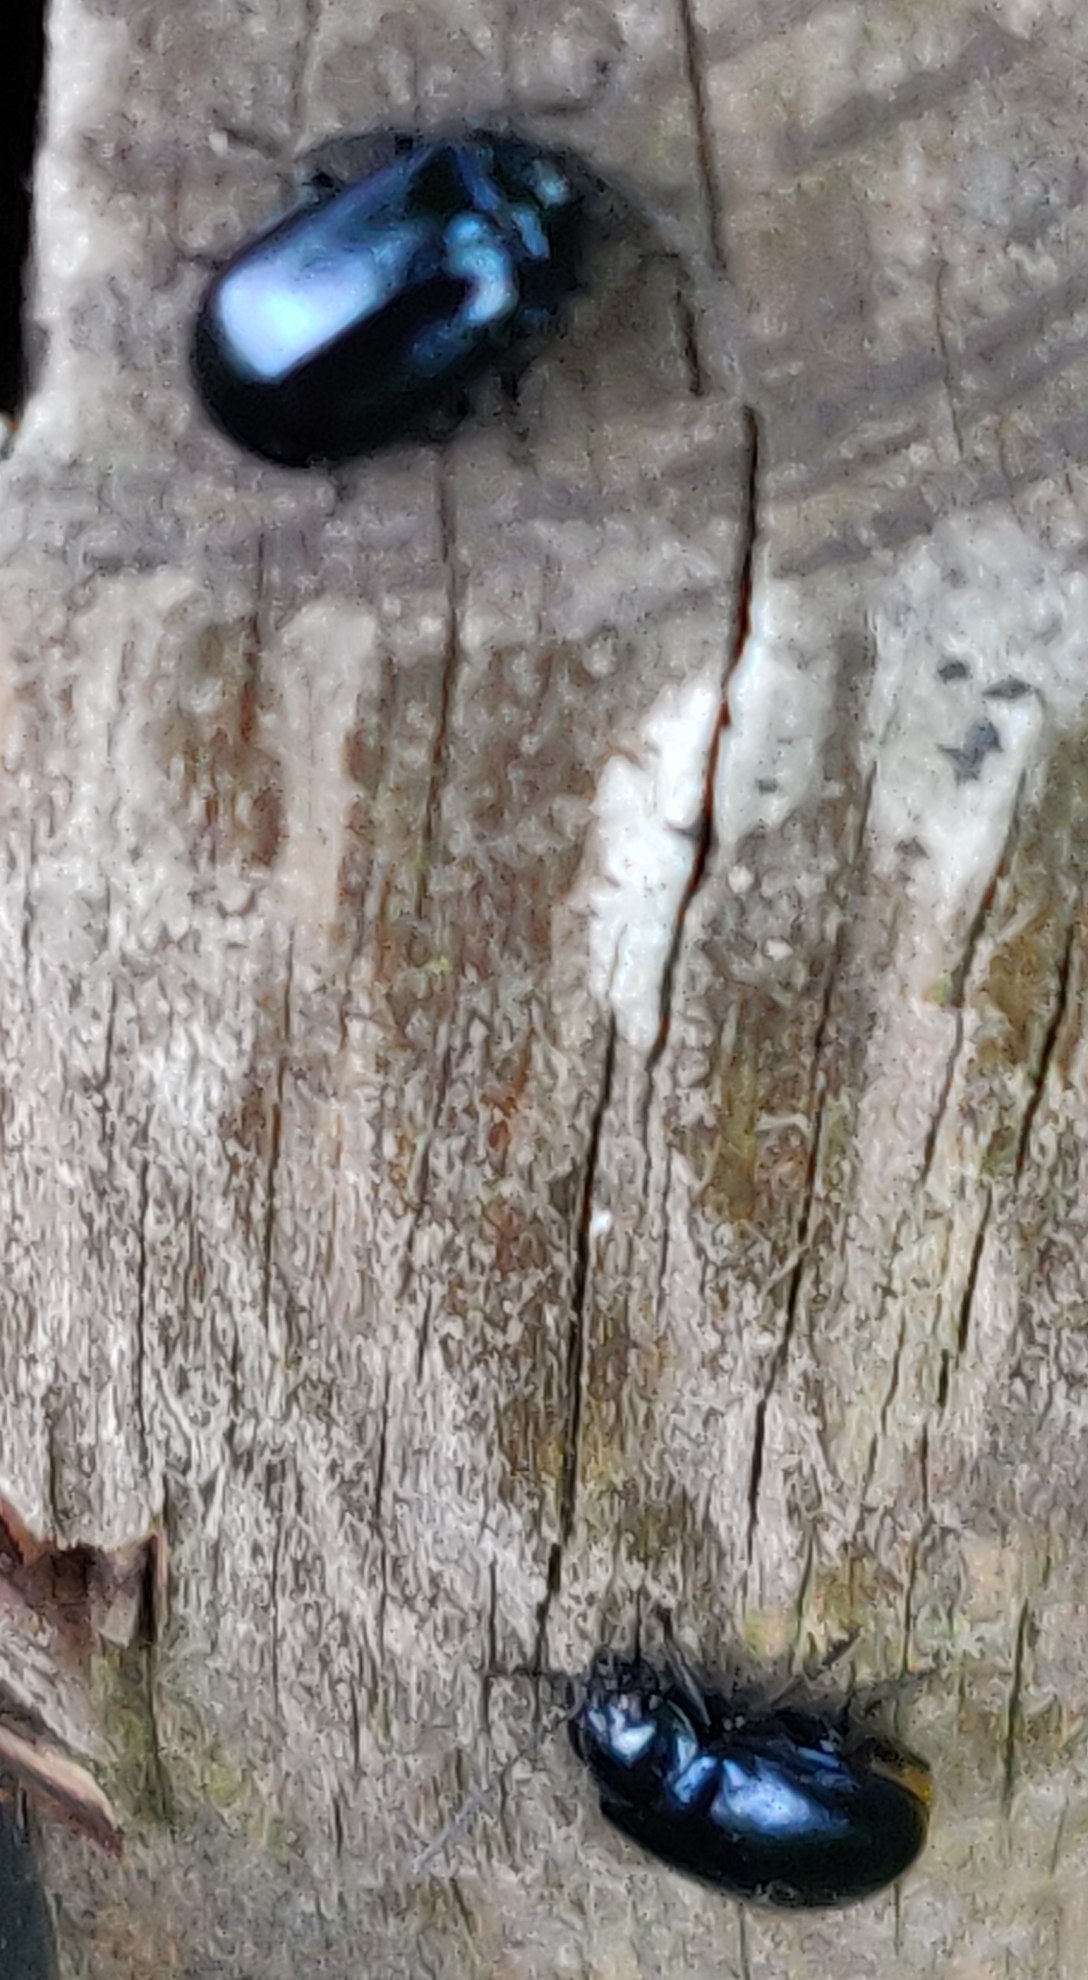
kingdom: Animalia
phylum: Arthropoda
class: Insecta
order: Coleoptera
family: Chrysomelidae
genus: Agelastica
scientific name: Agelastica alni
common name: Ellebladbille
